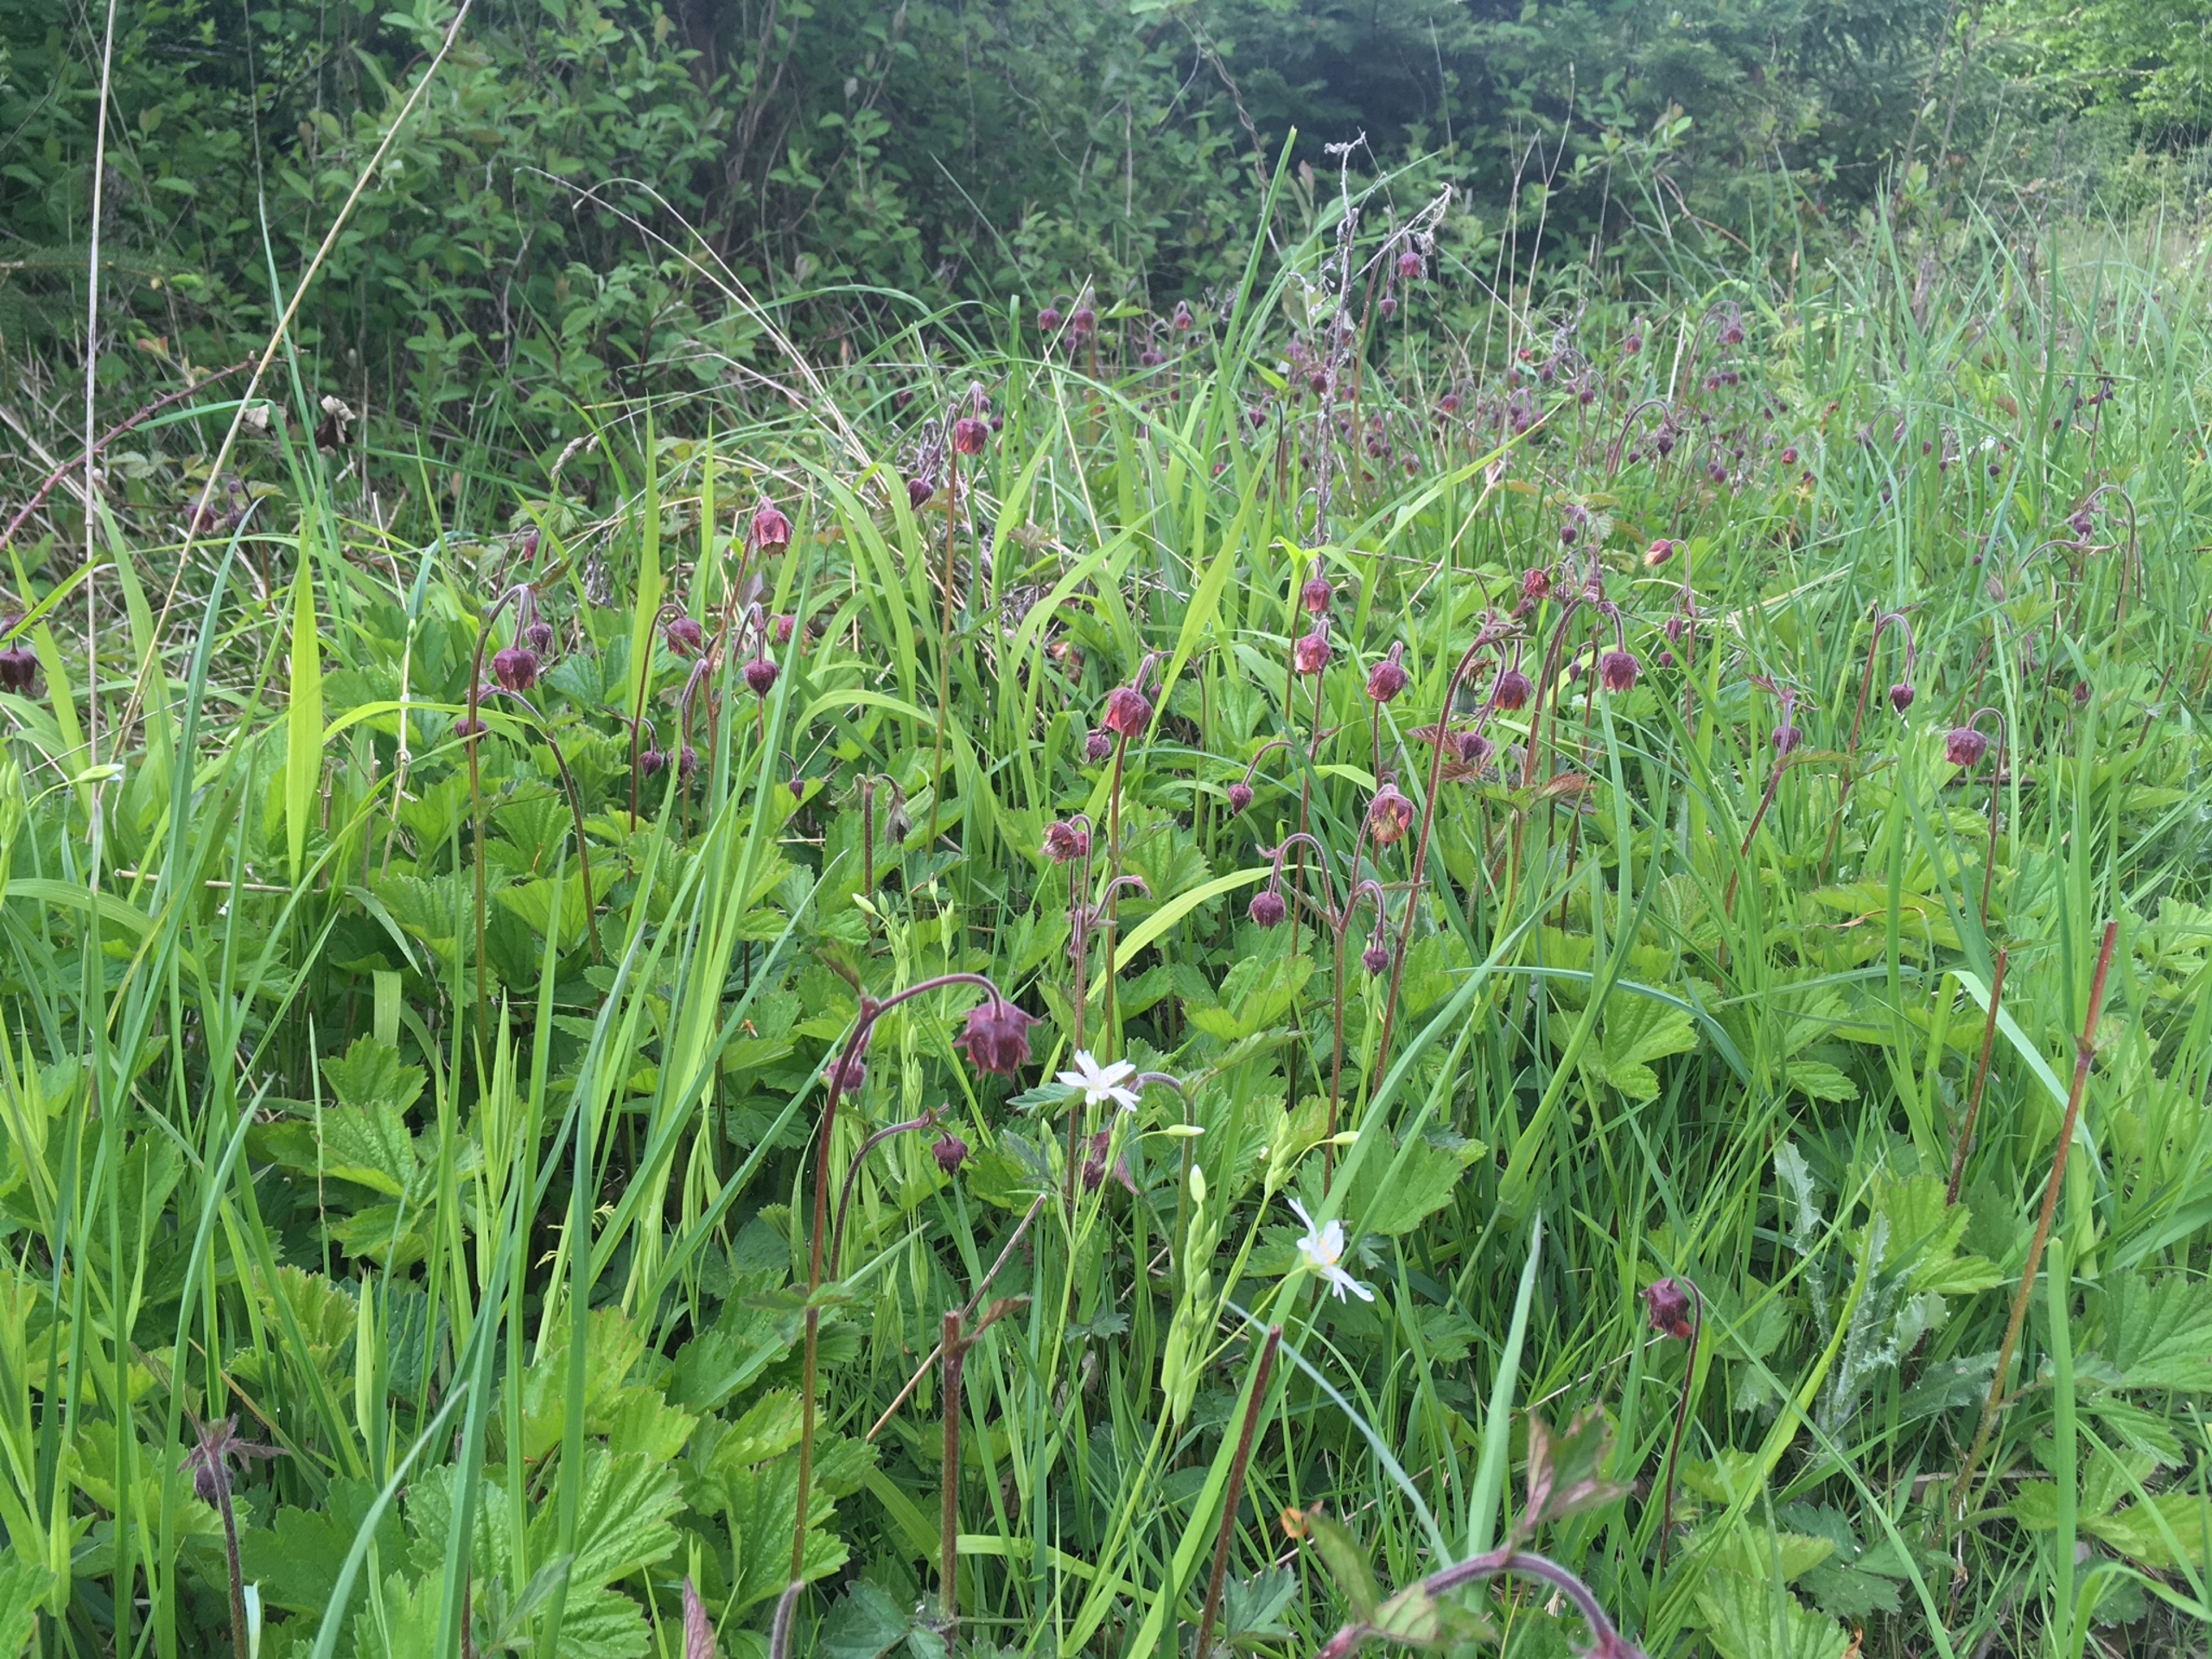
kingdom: Plantae
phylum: Tracheophyta
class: Magnoliopsida
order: Rosales
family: Rosaceae
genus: Geum
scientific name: Geum rivale
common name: Eng-nellikerod
